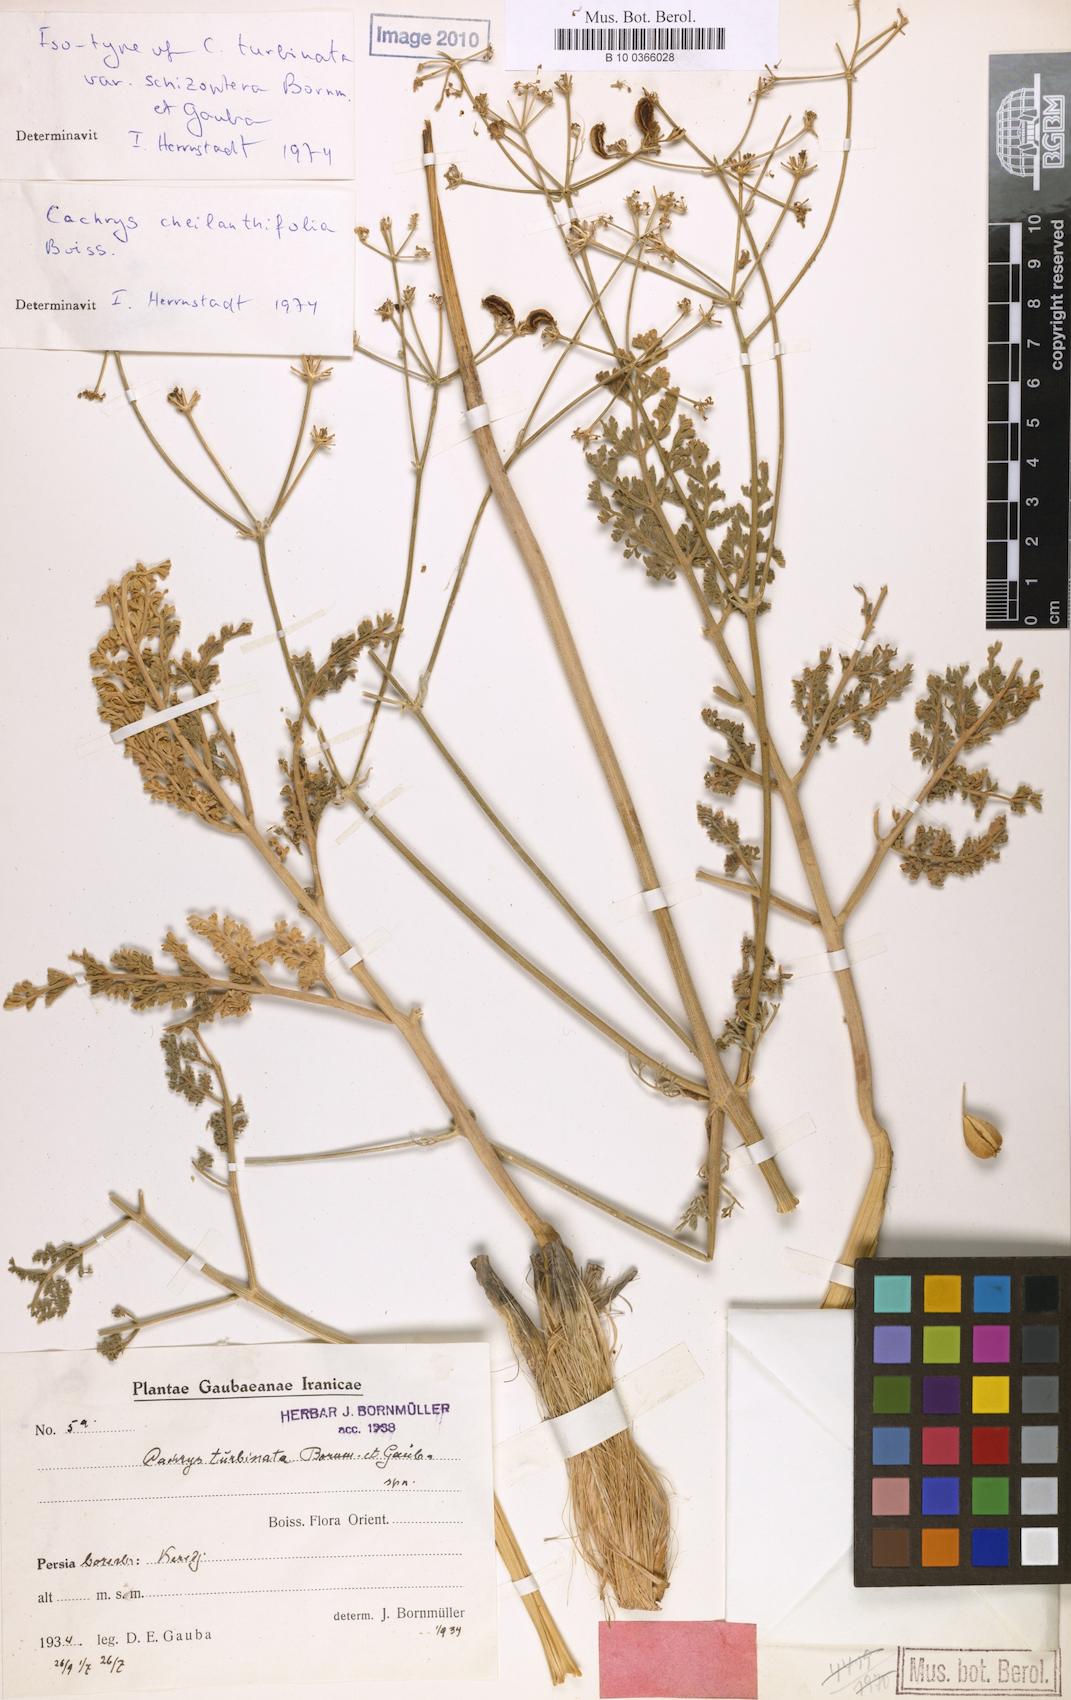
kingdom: Plantae
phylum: Tracheophyta
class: Magnoliopsida
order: Apiales
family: Apiaceae
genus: Prangos
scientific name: Prangos cheilanthifolia
